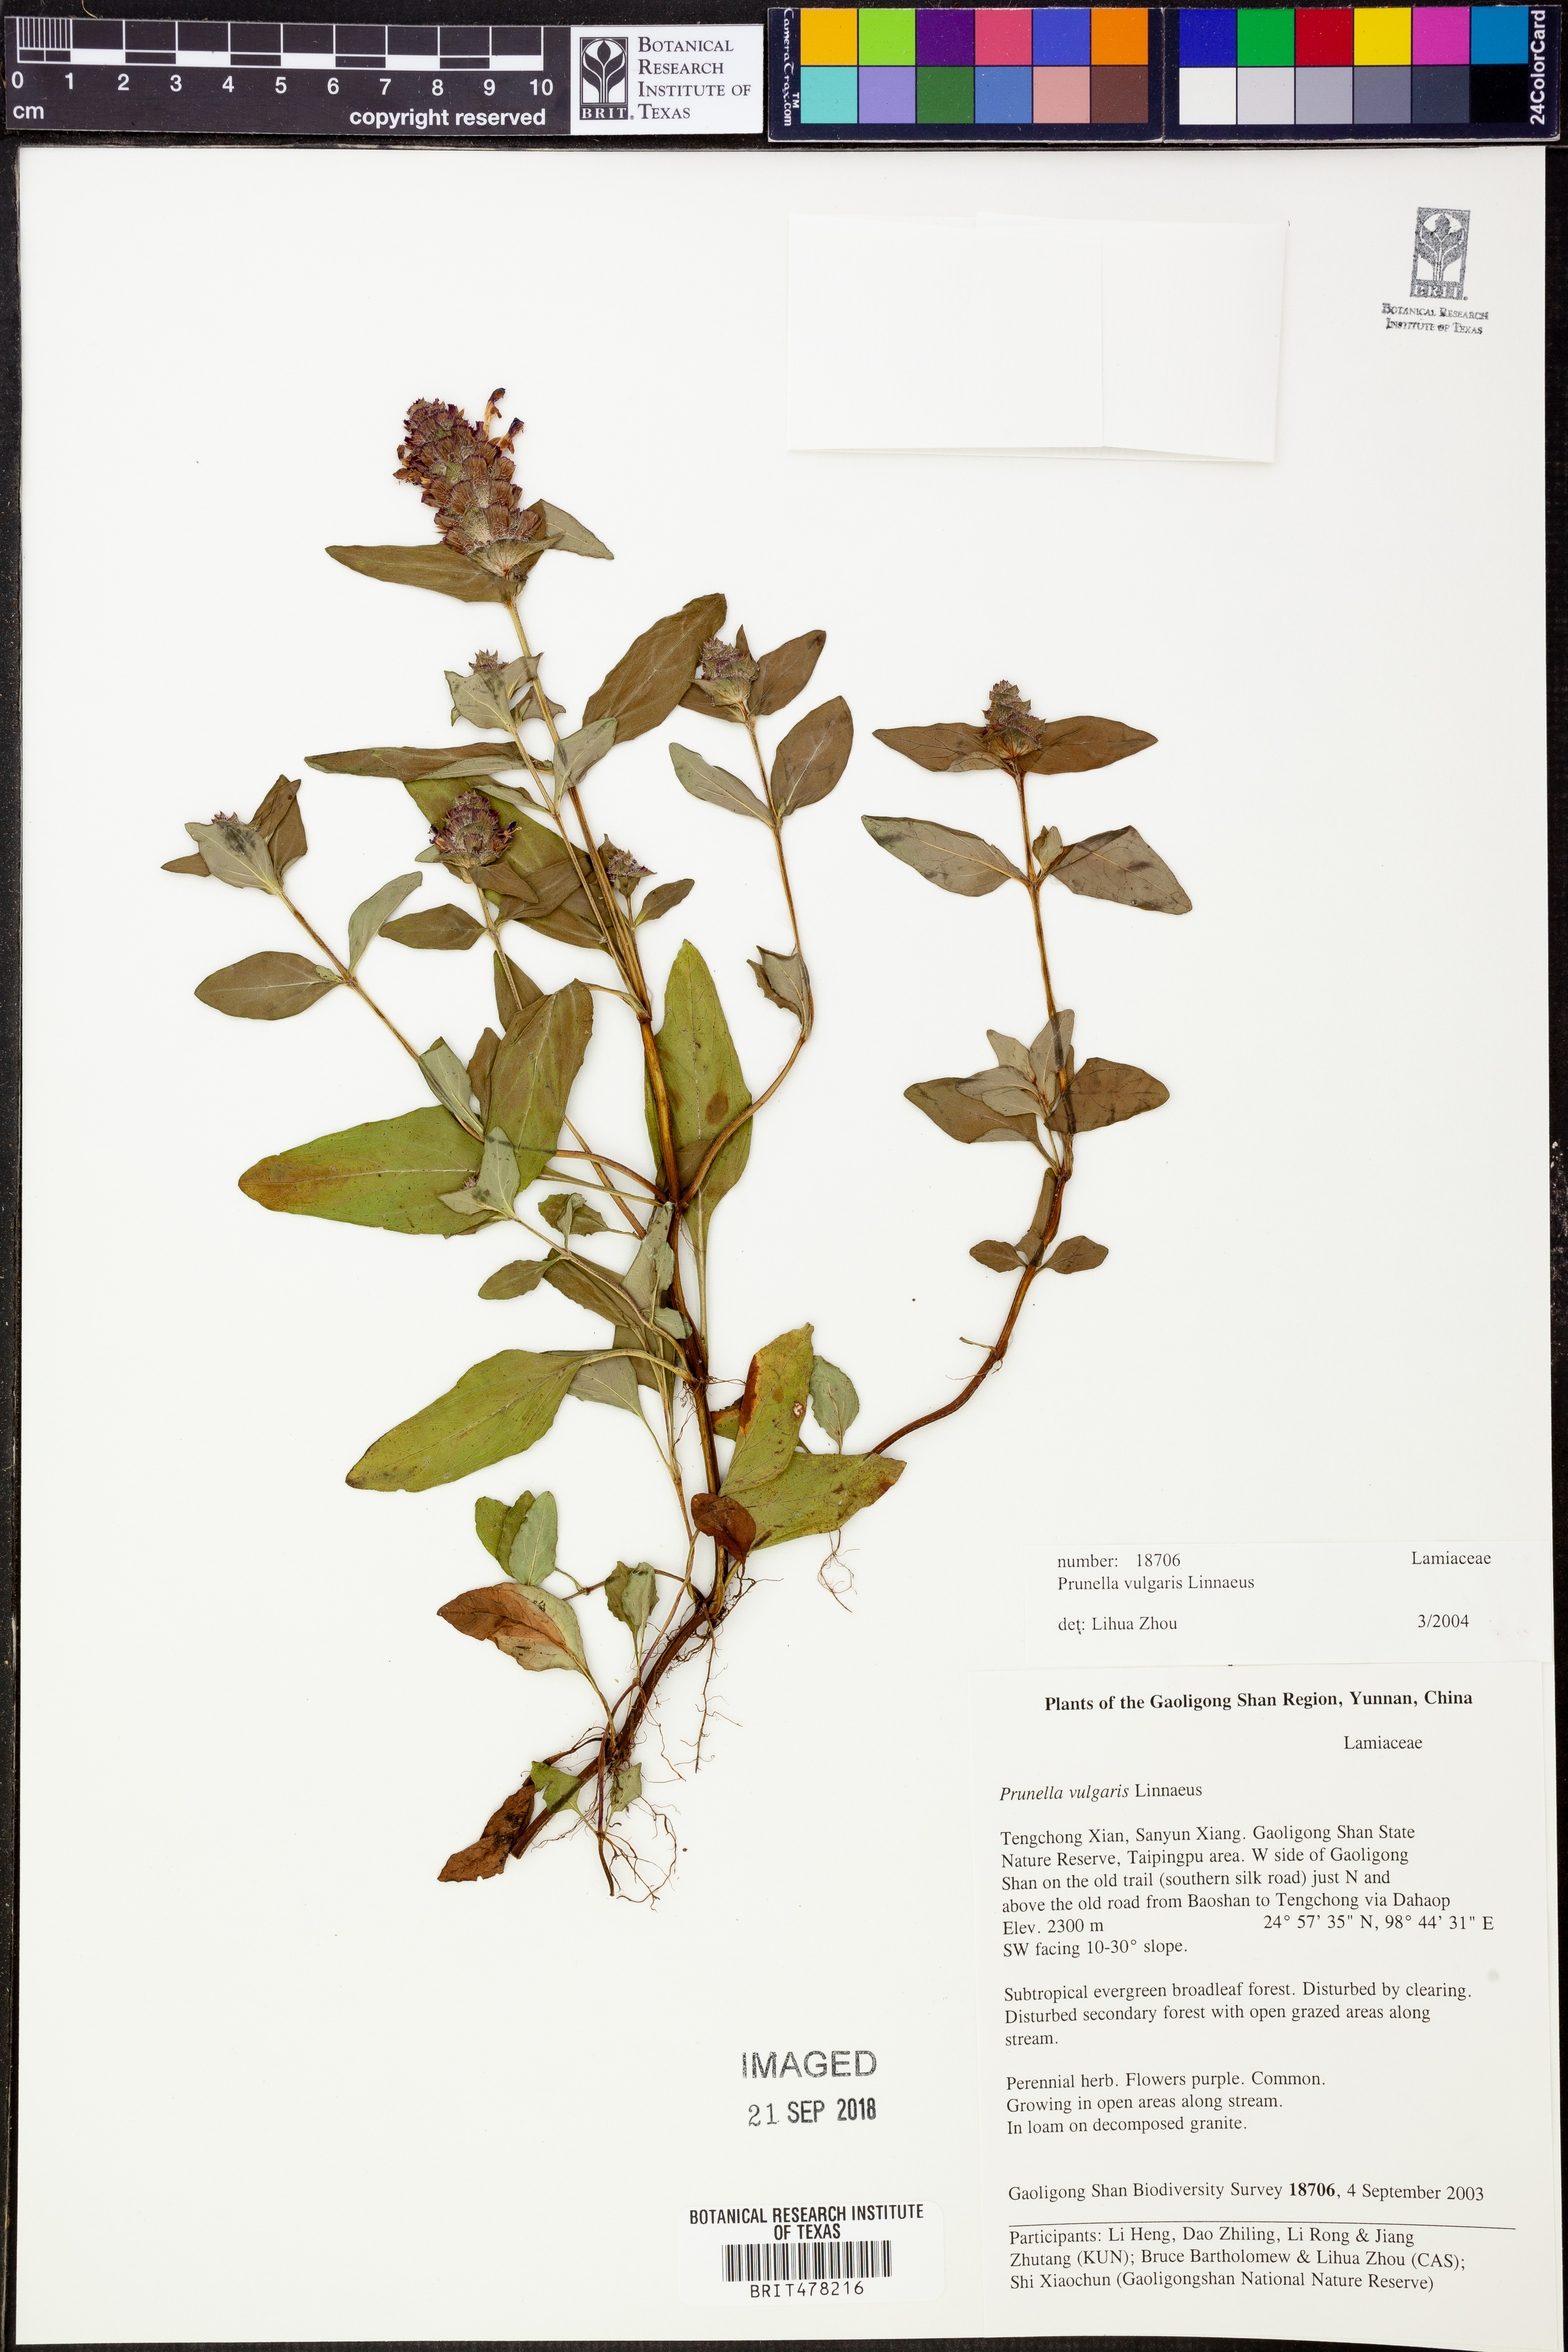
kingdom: Plantae
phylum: Tracheophyta
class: Magnoliopsida
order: Lamiales
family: Lamiaceae
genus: Prunella
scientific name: Prunella vulgaris
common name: Heal-all
